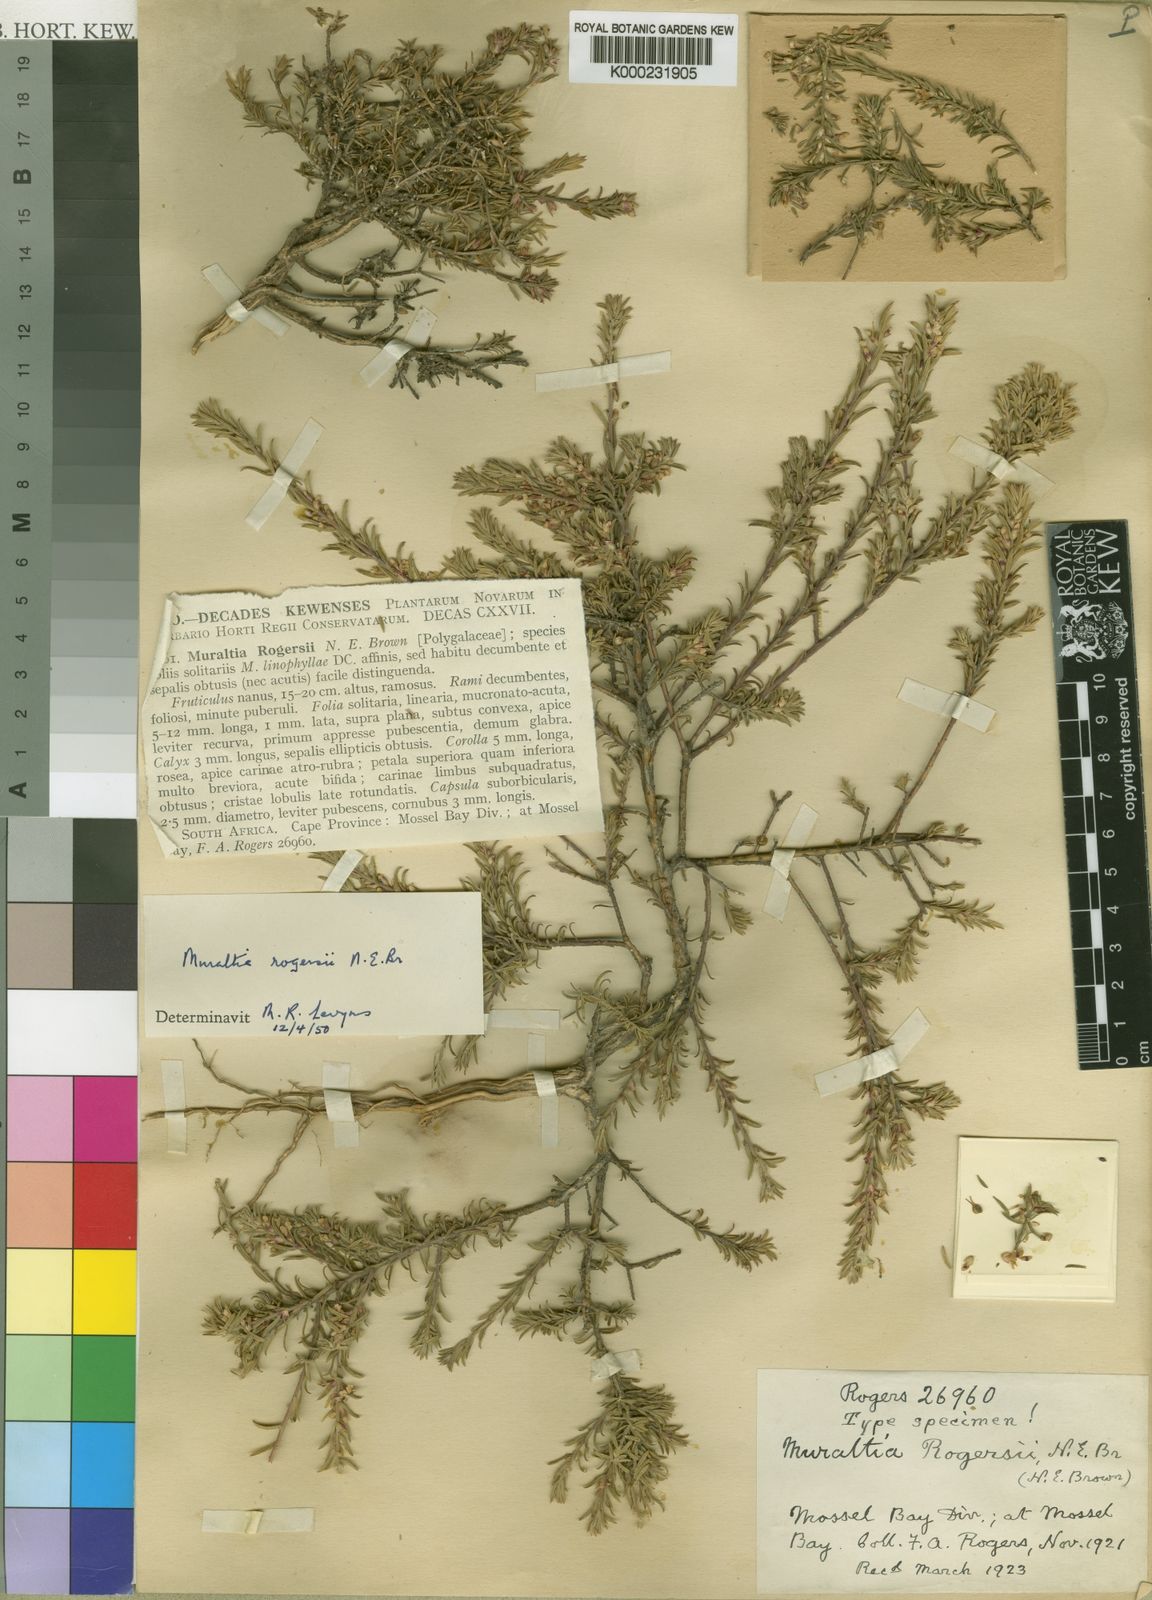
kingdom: Plantae
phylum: Tracheophyta
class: Magnoliopsida
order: Fabales
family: Polygalaceae
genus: Muraltia
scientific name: Muraltia empleuridioides
